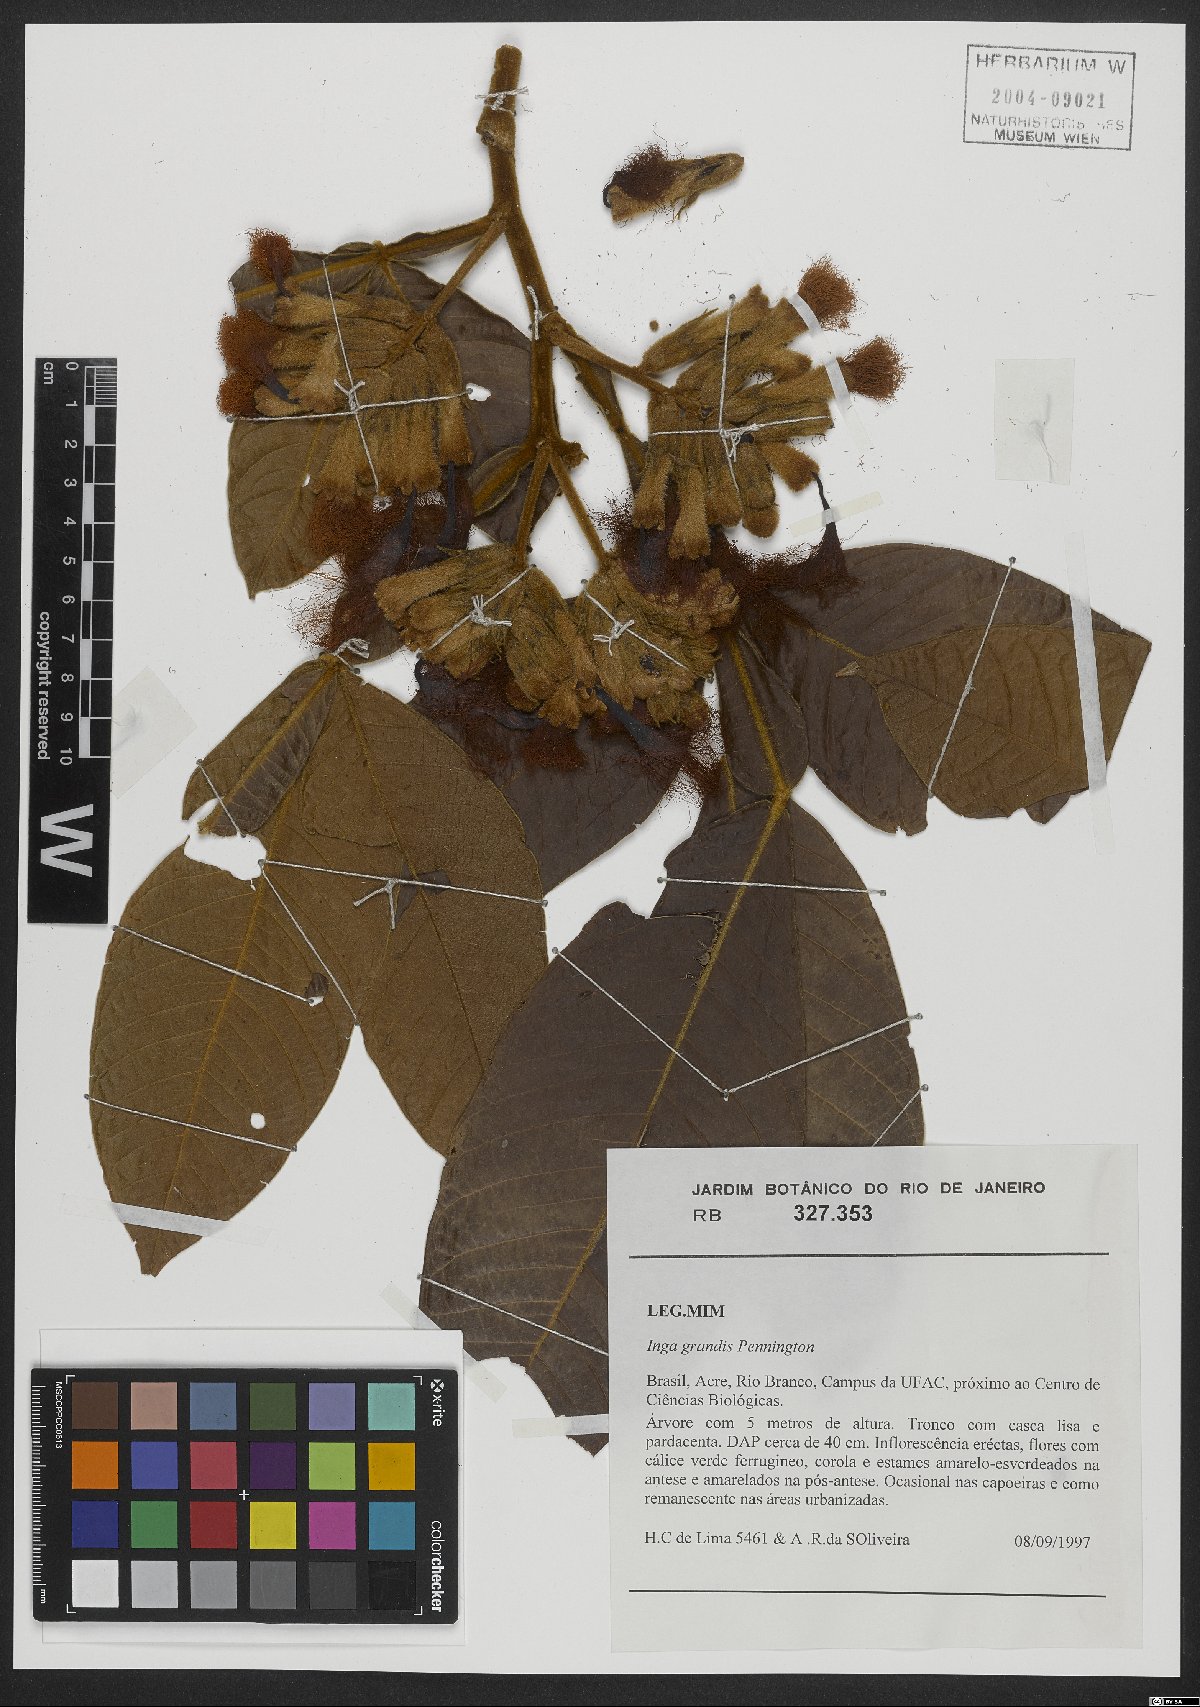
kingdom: Plantae
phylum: Tracheophyta
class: Magnoliopsida
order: Fabales
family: Fabaceae
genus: Inga
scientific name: Inga grandis
